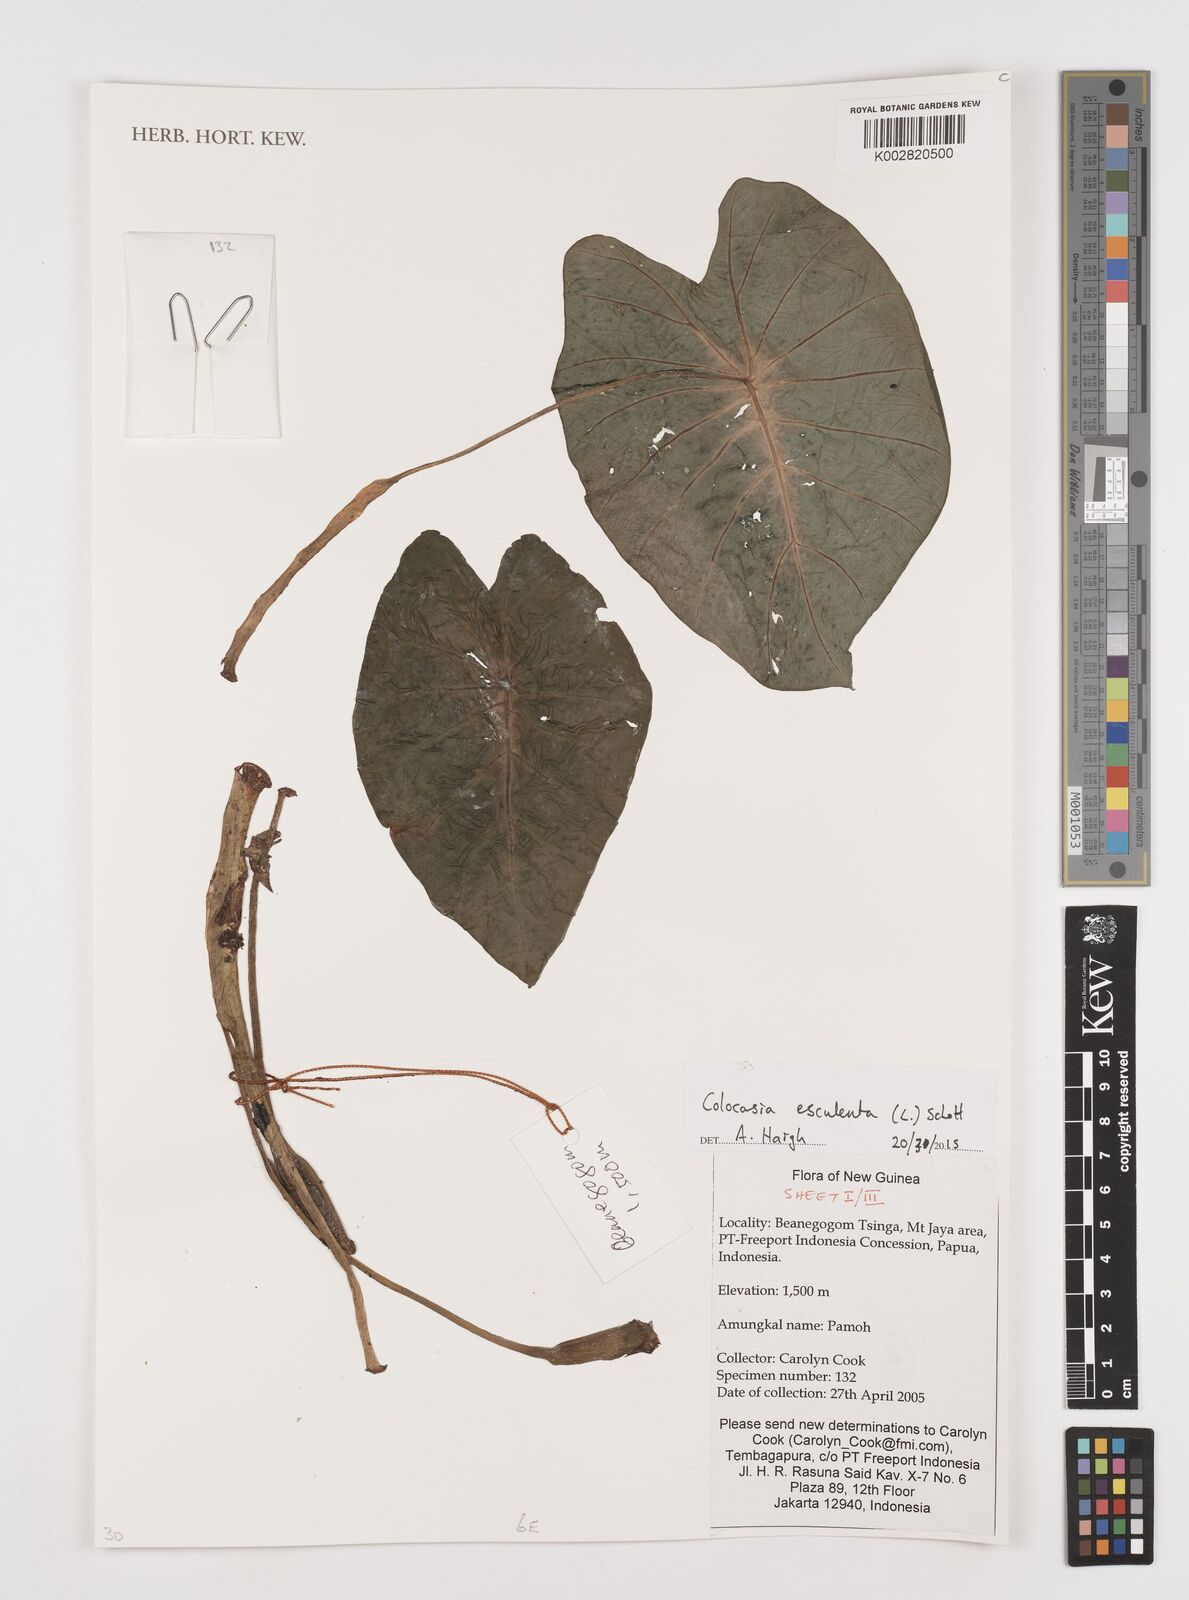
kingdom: Plantae
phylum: Tracheophyta
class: Liliopsida
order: Alismatales
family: Araceae
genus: Colocasia
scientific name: Colocasia esculenta
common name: Taro
